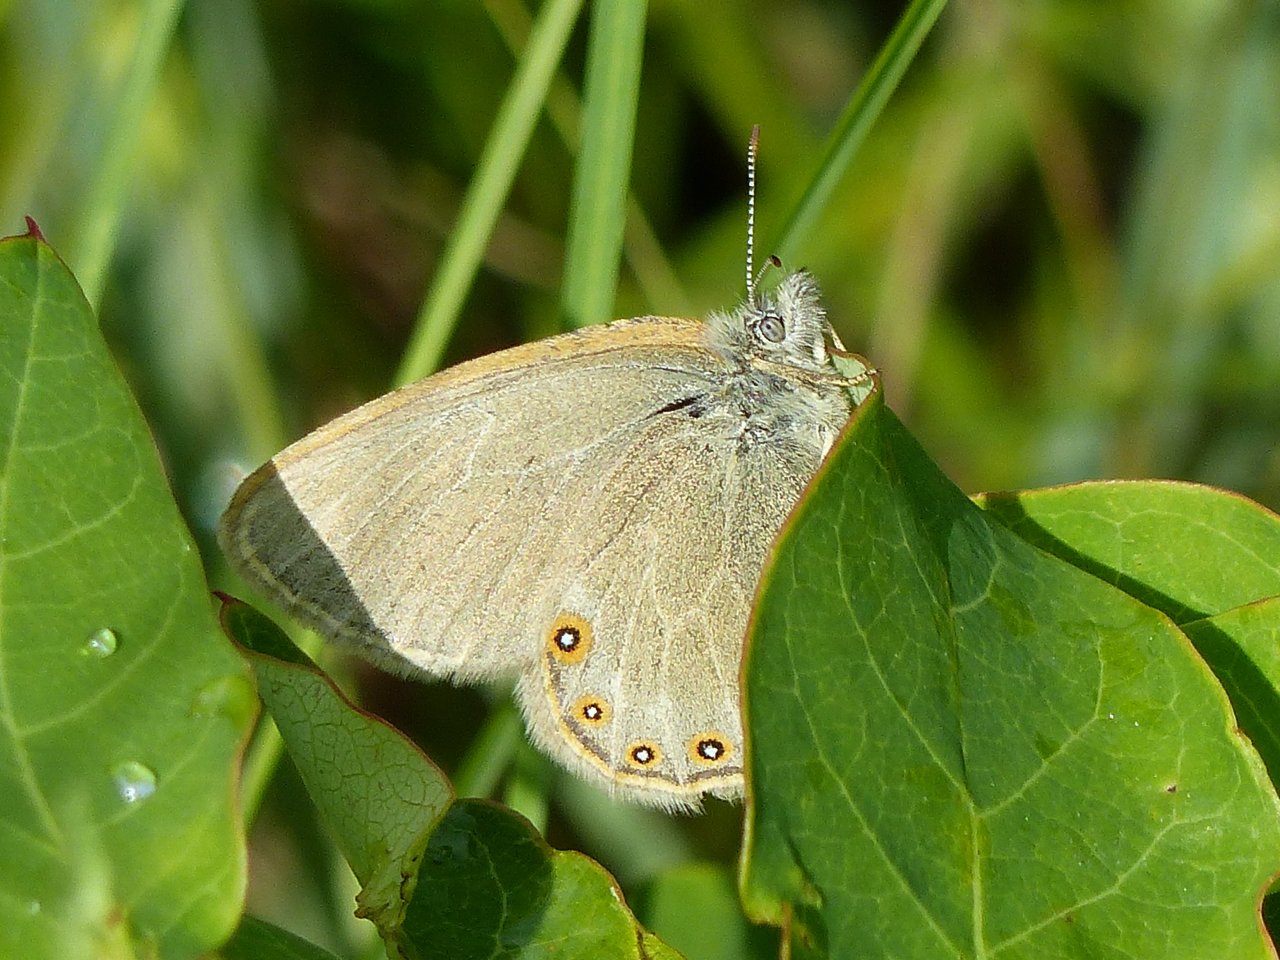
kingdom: Animalia
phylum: Arthropoda
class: Insecta
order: Lepidoptera
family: Nymphalidae
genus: Coenonympha
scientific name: Coenonympha haydeni
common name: Hayden's Ringlet
